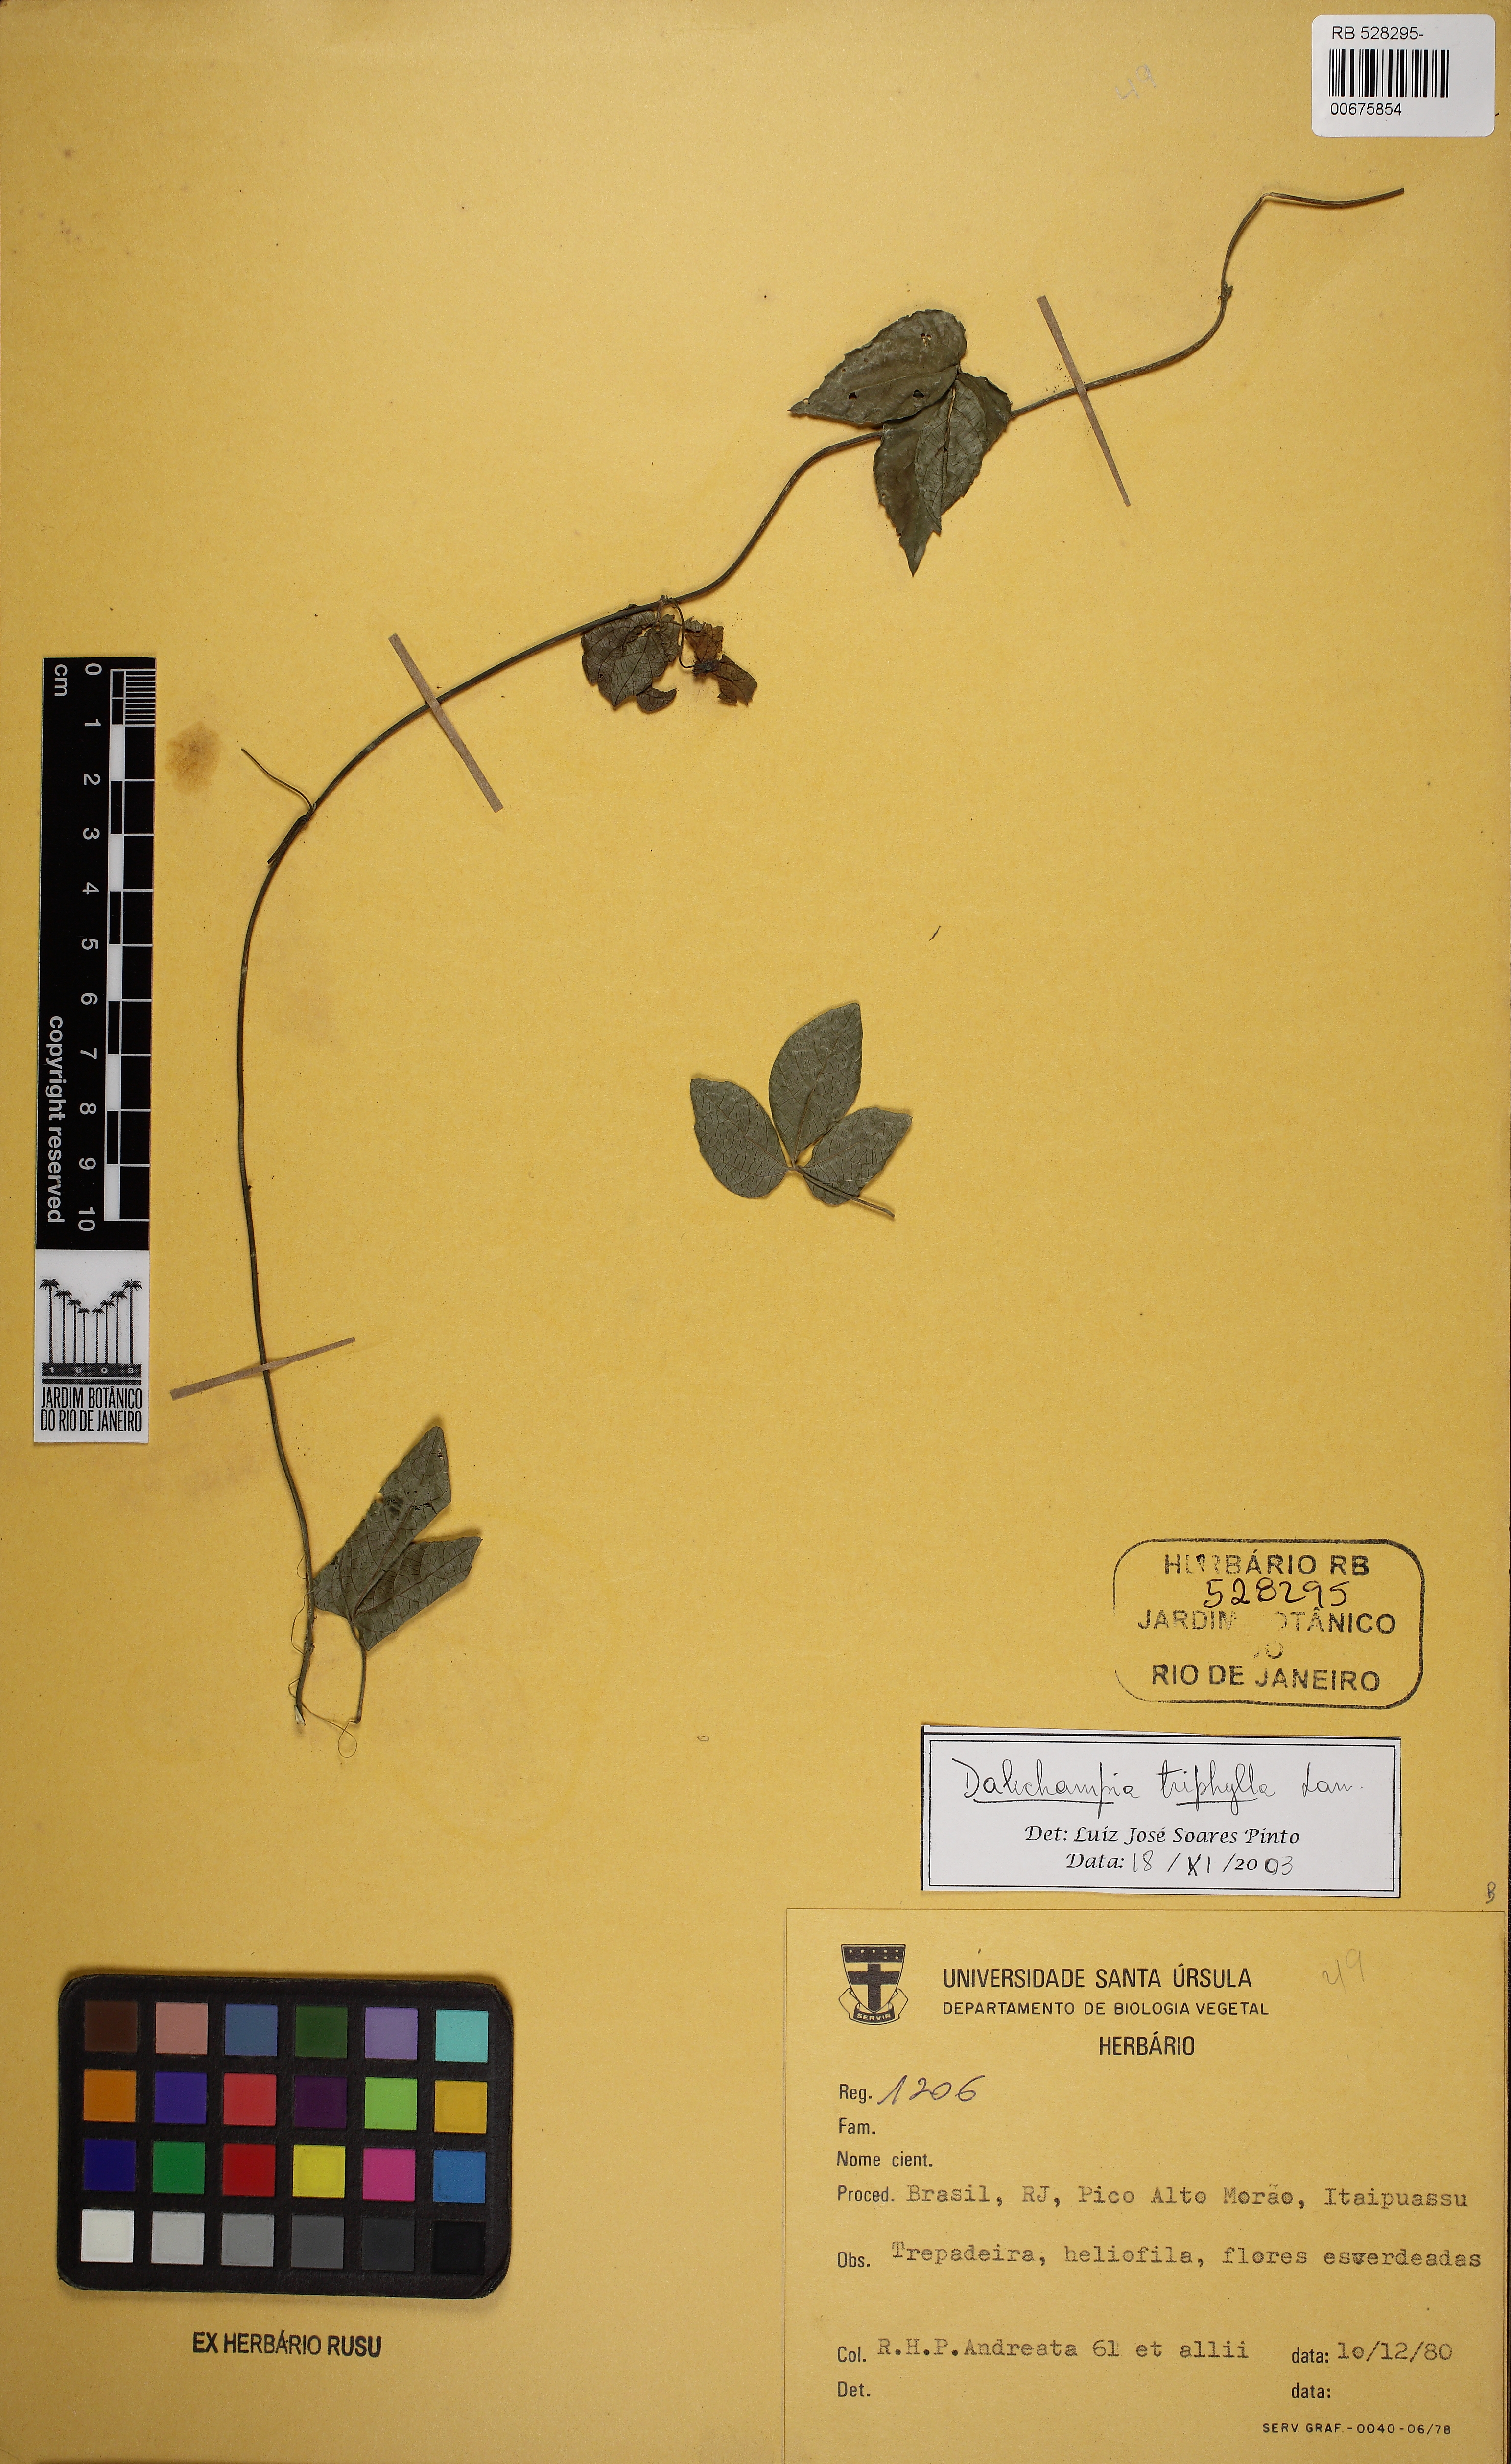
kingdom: Plantae
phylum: Tracheophyta
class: Magnoliopsida
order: Malpighiales
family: Euphorbiaceae
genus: Dalechampia
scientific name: Dalechampia triphylla
